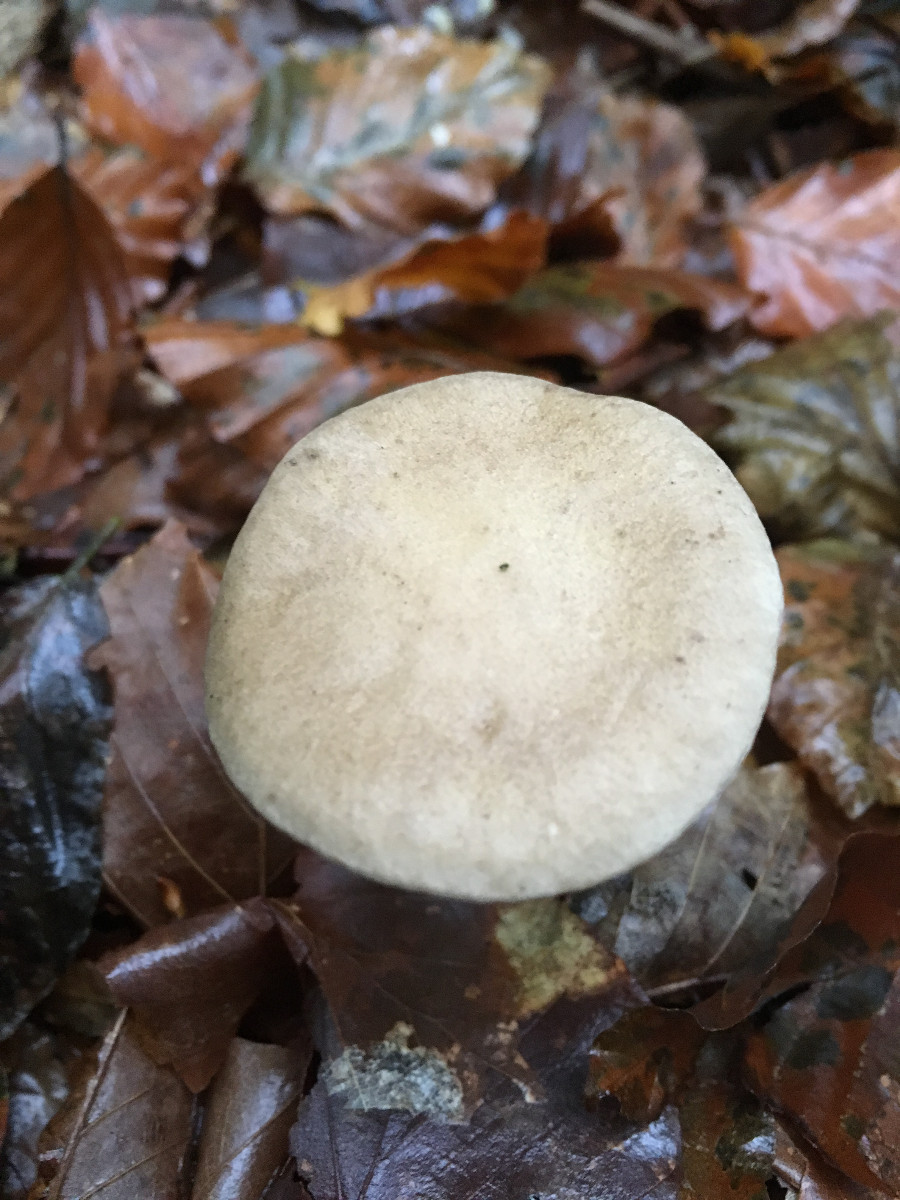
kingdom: Fungi
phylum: Basidiomycota
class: Agaricomycetes
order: Agaricales
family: Hygrophoraceae
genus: Ampulloclitocybe
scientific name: Ampulloclitocybe clavipes
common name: køllefod
